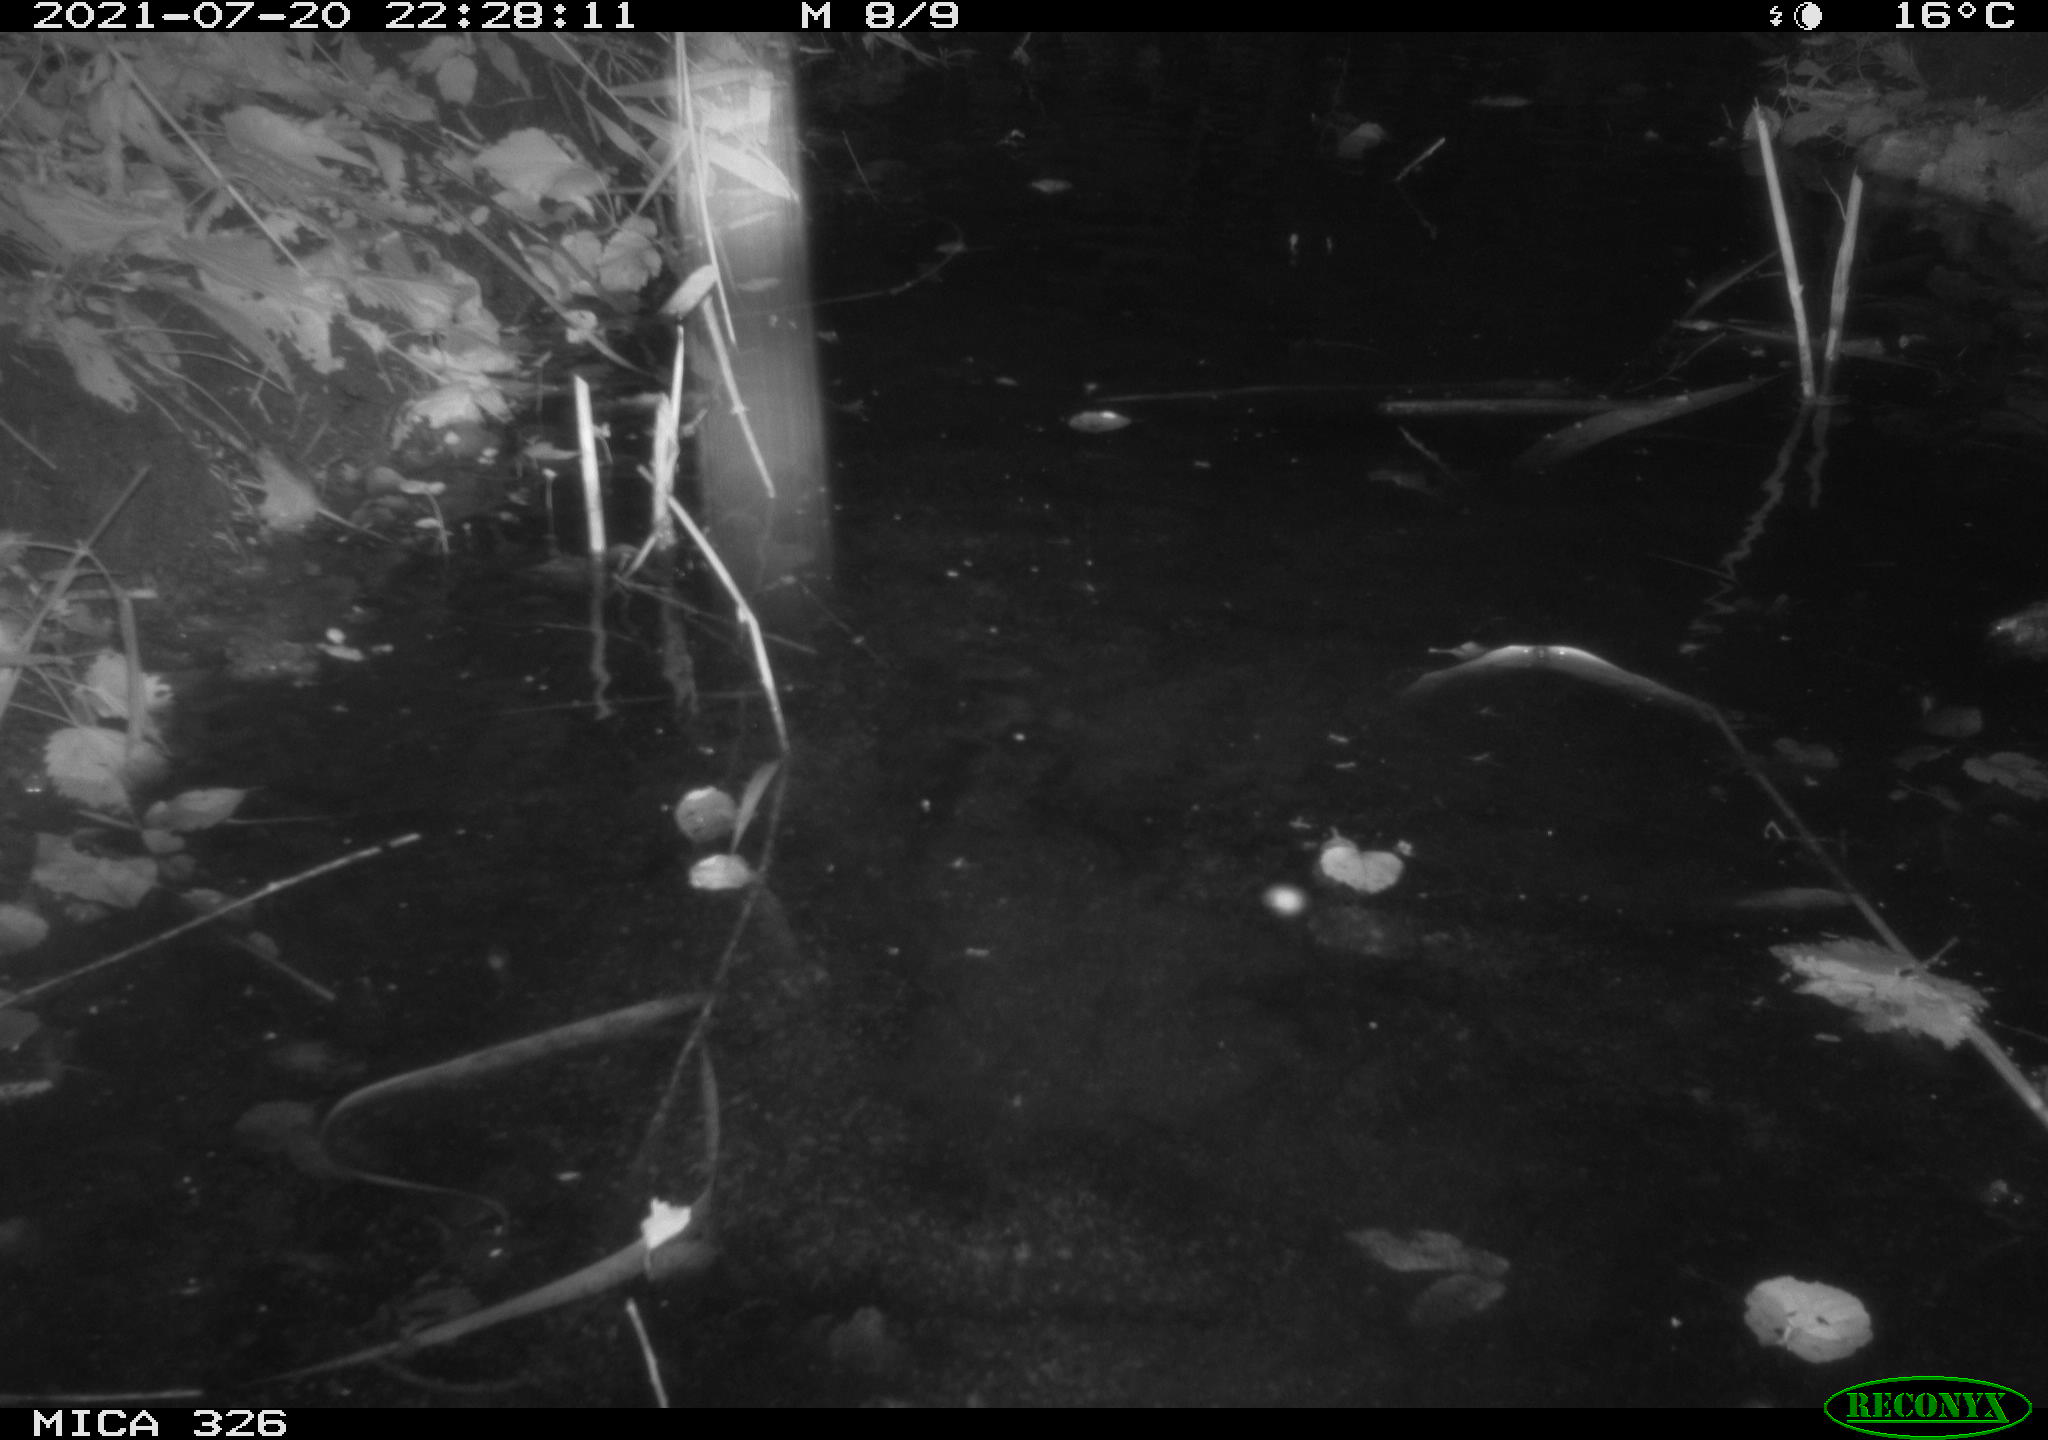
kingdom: Animalia
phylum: Chordata
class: Mammalia
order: Rodentia
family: Myocastoridae
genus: Myocastor
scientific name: Myocastor coypus
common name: Coypu
